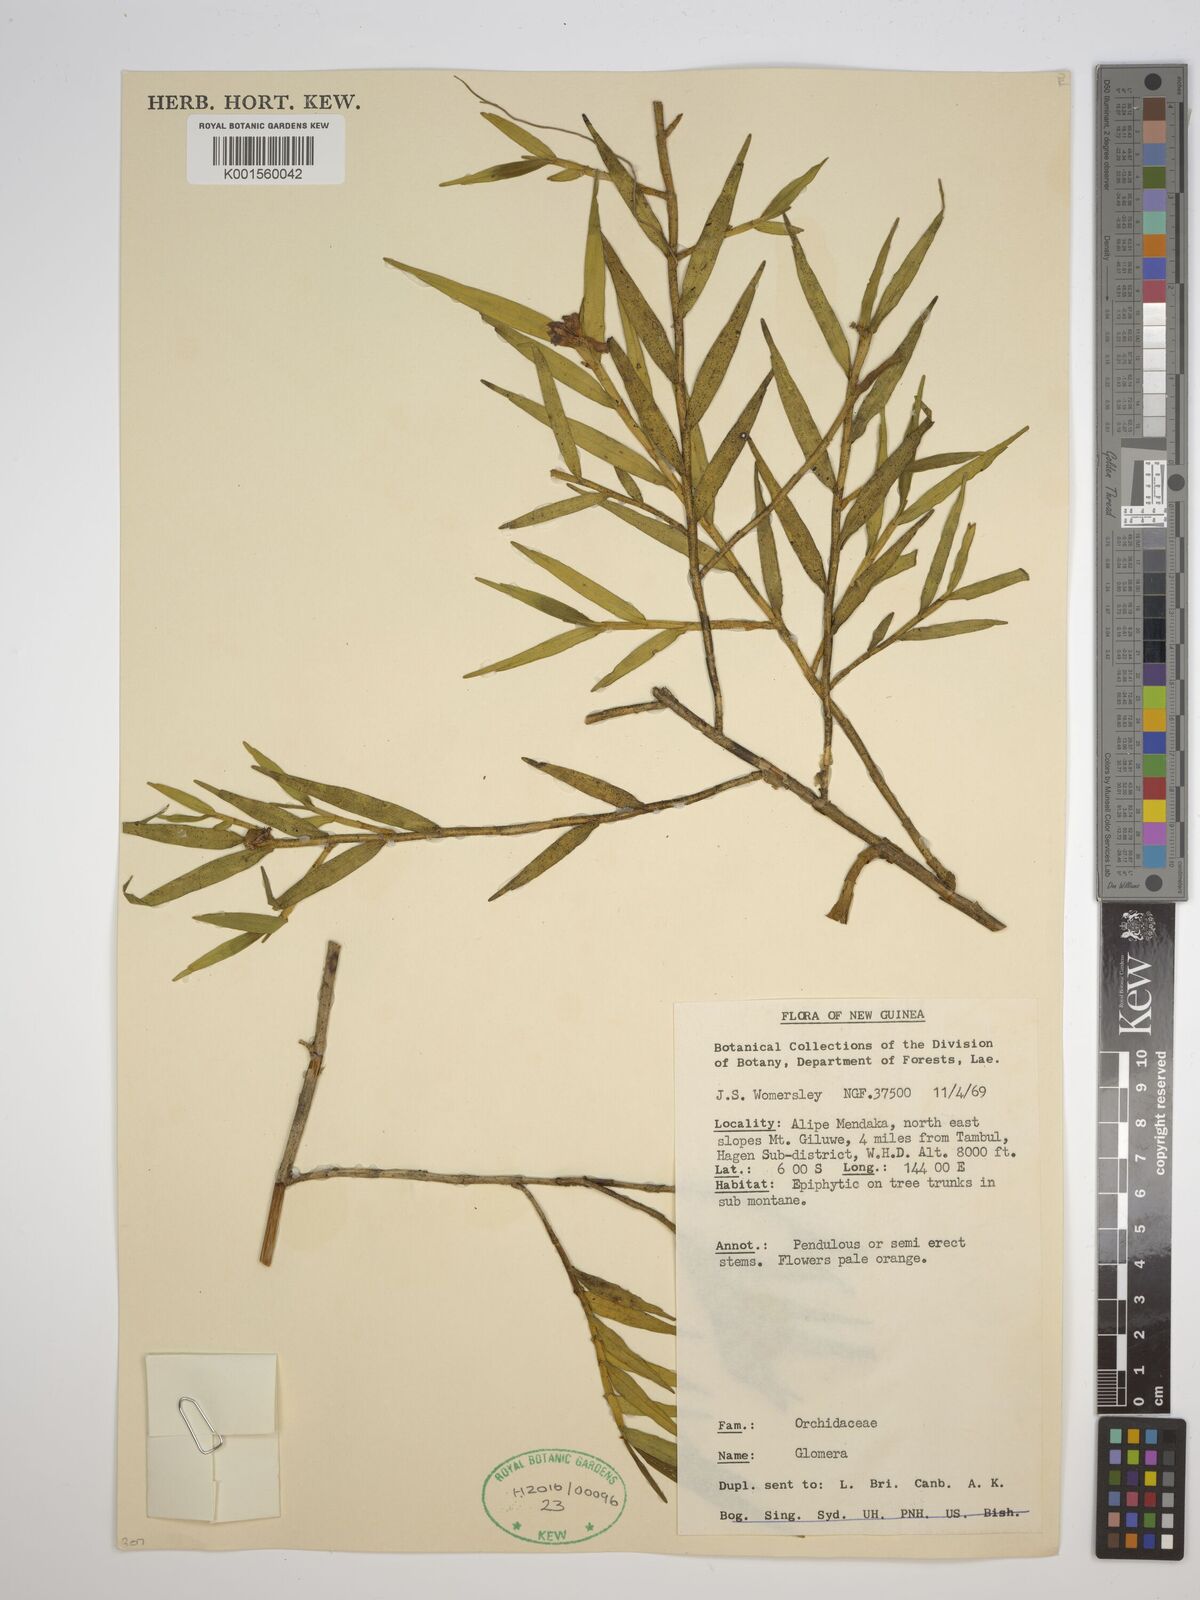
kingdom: Plantae
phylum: Tracheophyta
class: Liliopsida
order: Asparagales
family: Orchidaceae
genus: Glomera
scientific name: Glomera
